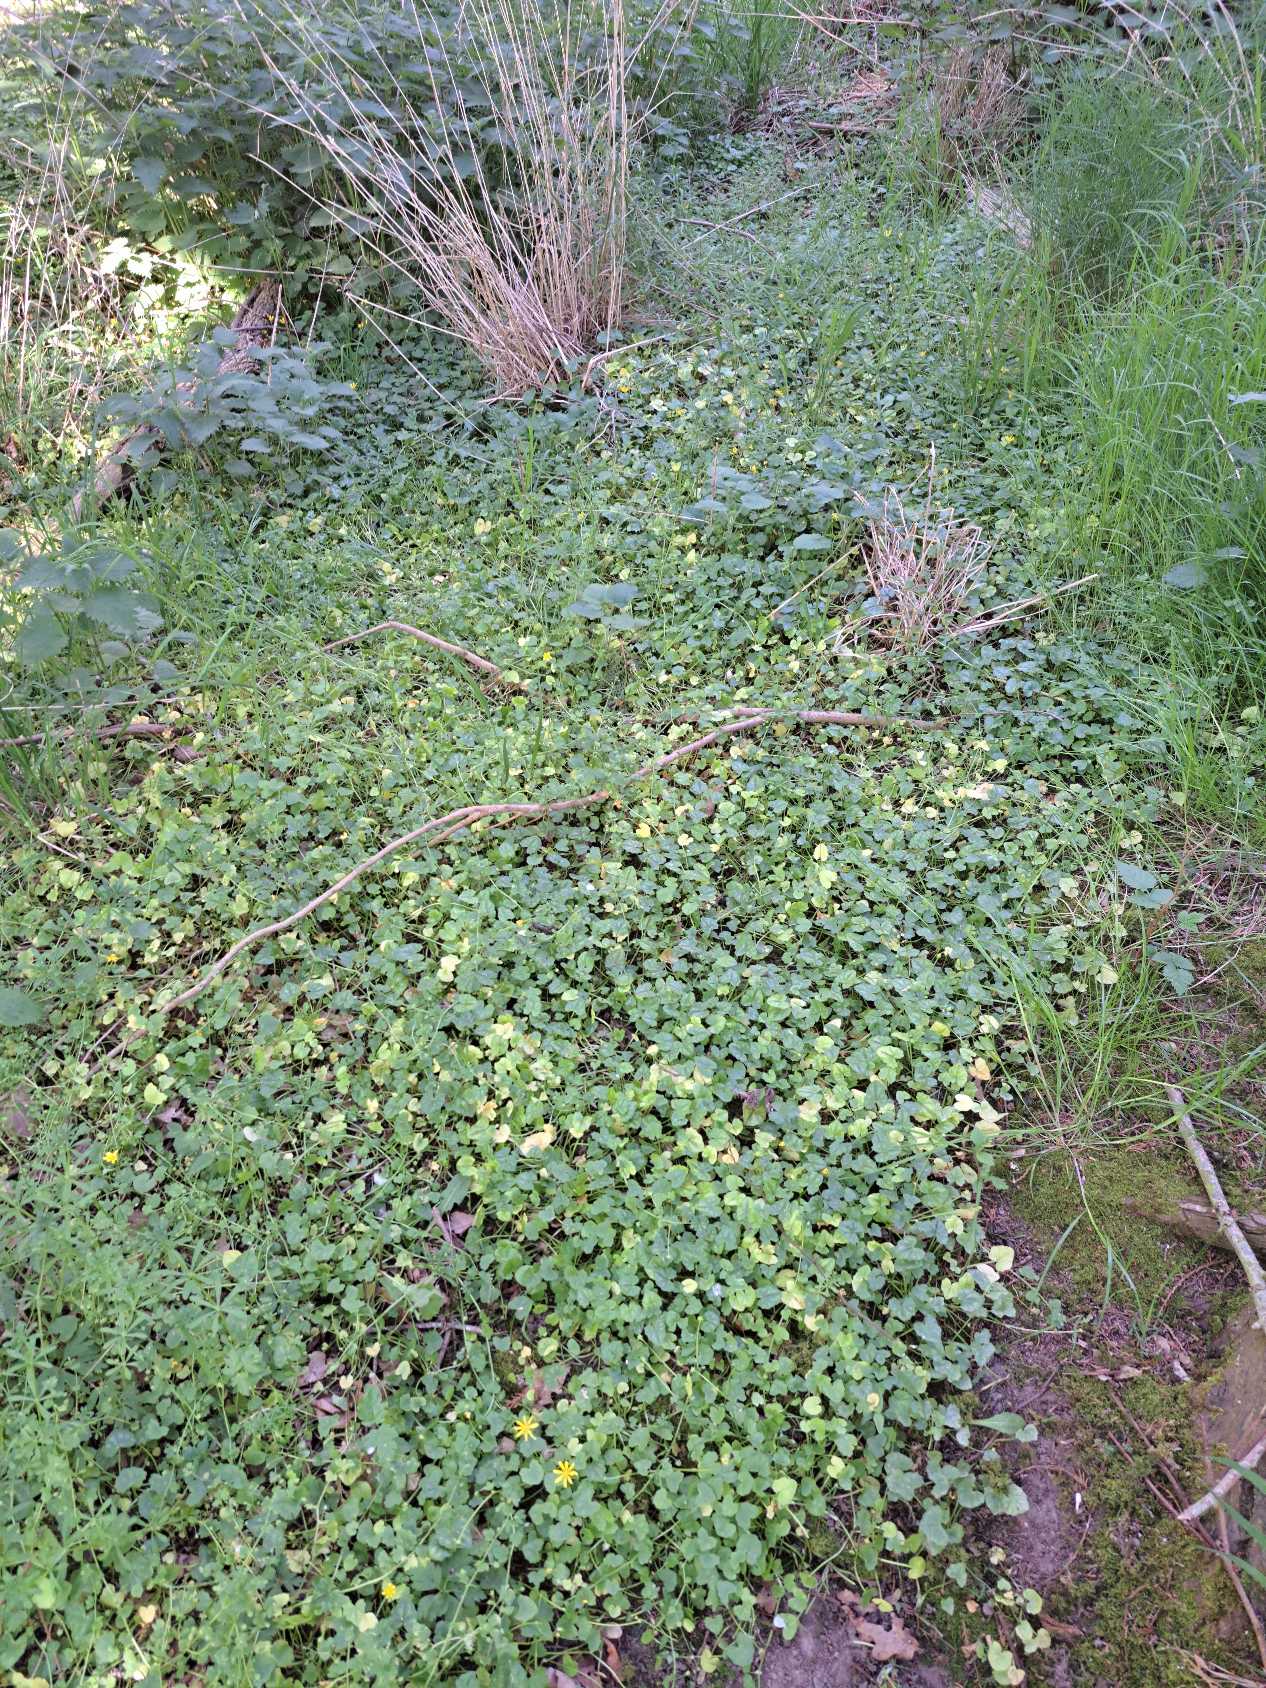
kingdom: Plantae
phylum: Tracheophyta
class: Magnoliopsida
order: Ranunculales
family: Ranunculaceae
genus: Ficaria
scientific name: Ficaria verna
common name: Vorterod
